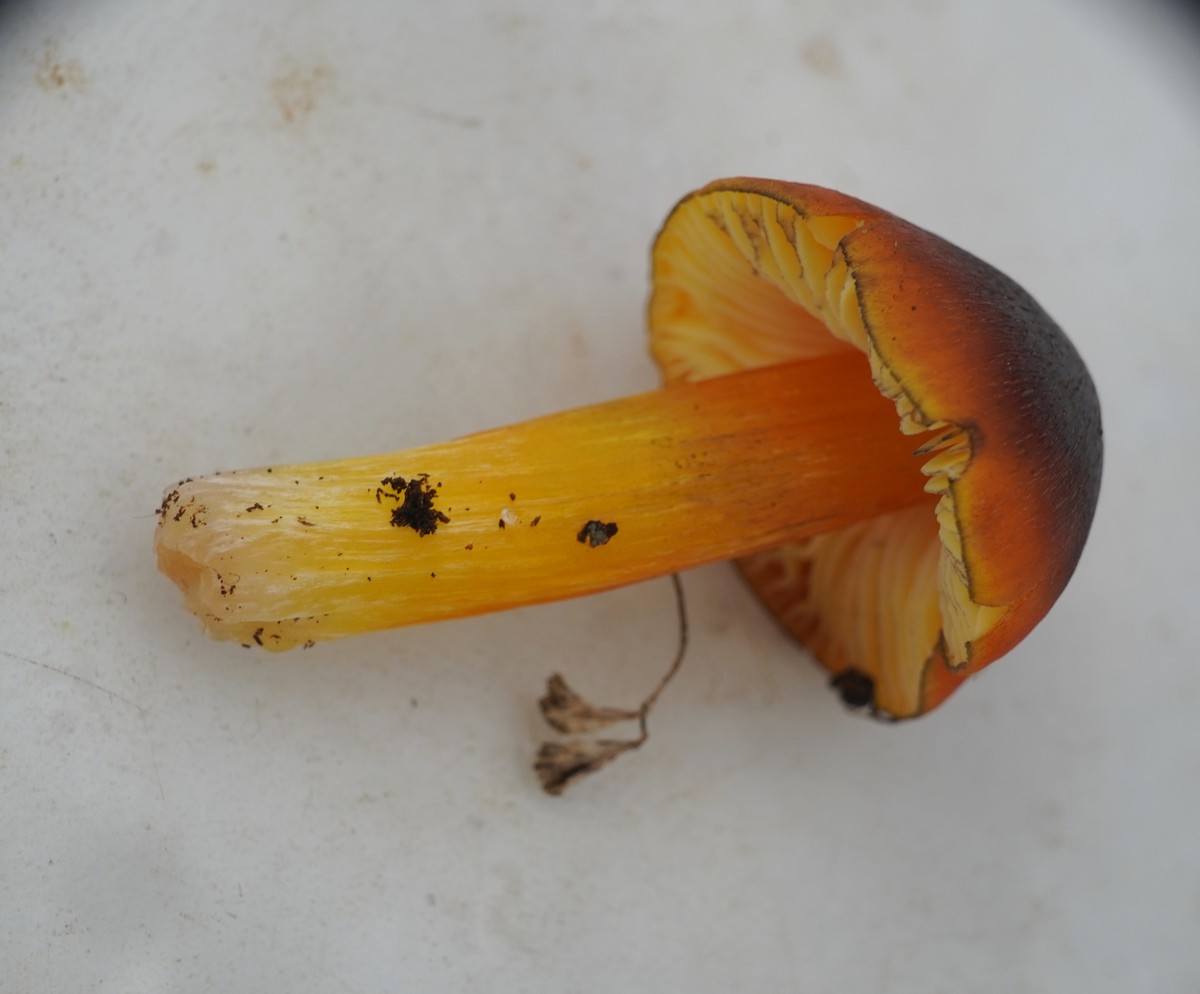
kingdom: Fungi
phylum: Basidiomycota
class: Agaricomycetes
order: Agaricales
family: Hygrophoraceae
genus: Hygrocybe
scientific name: Hygrocybe conica
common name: kegle-vokshat
